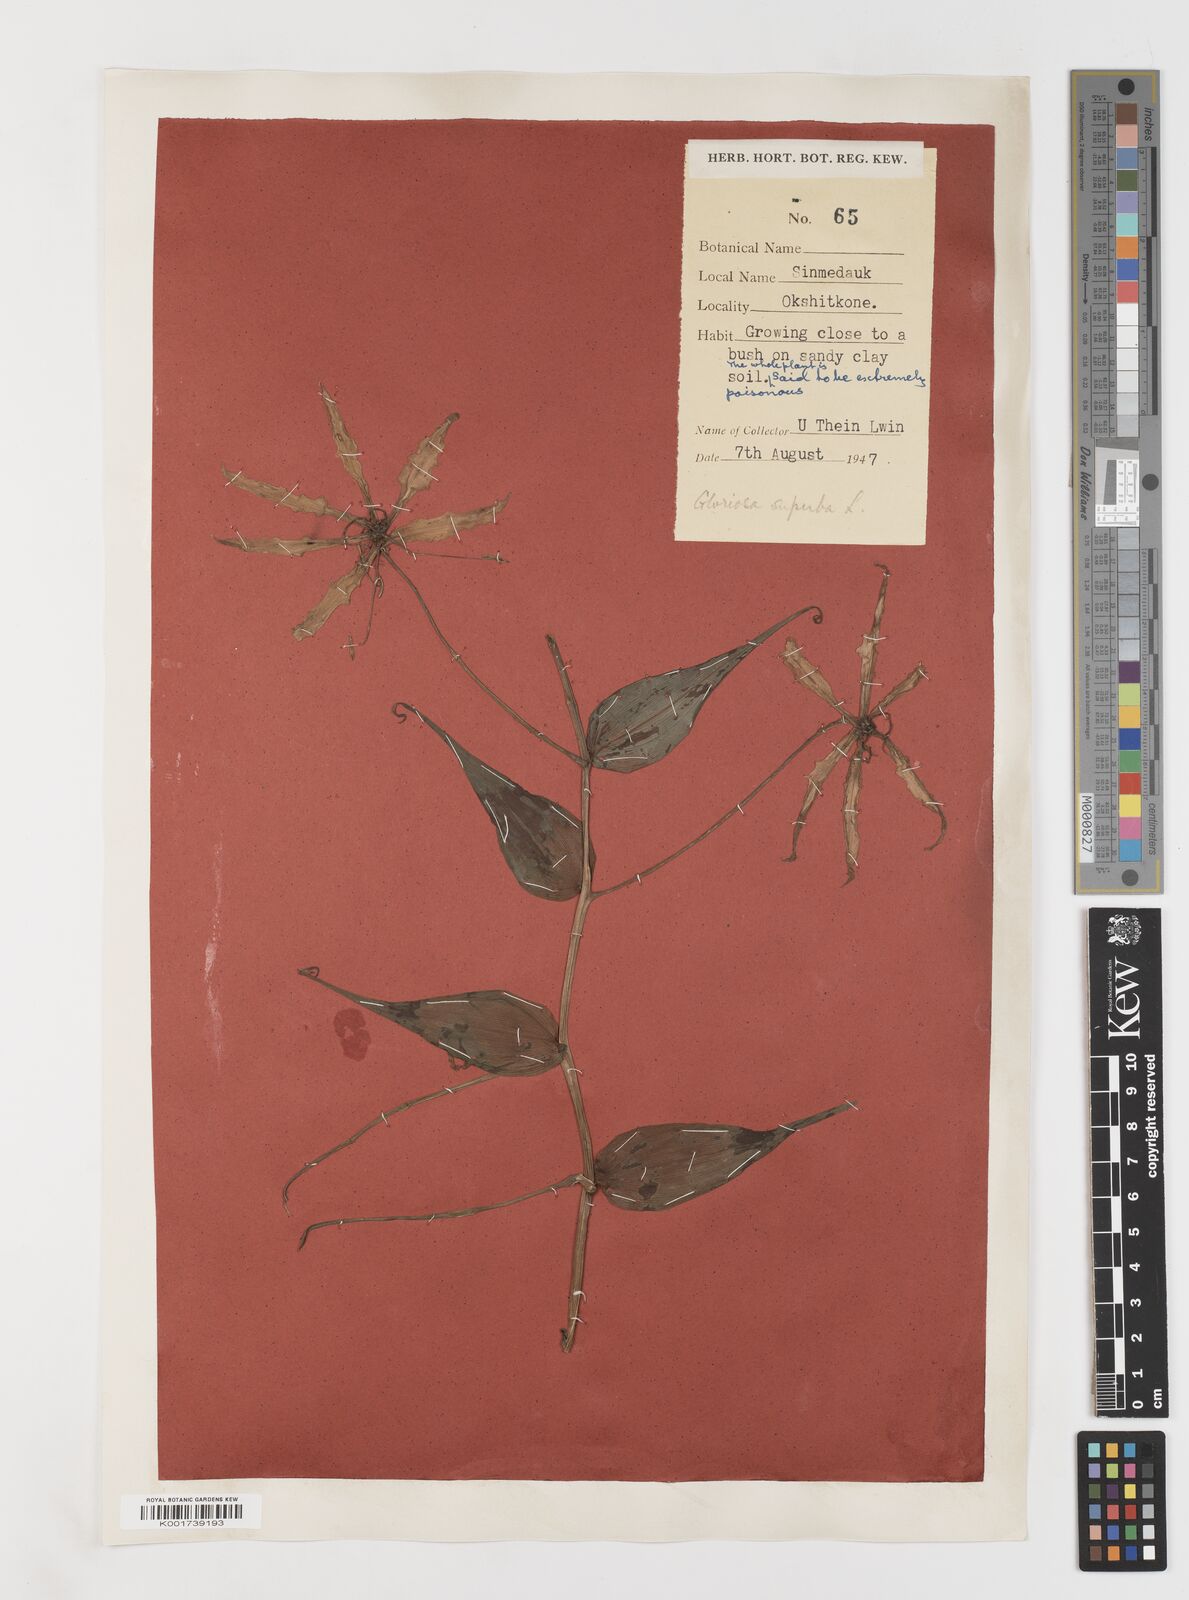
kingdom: Plantae
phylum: Tracheophyta
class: Liliopsida
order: Liliales
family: Colchicaceae
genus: Gloriosa
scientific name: Gloriosa superba
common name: Flame lily
